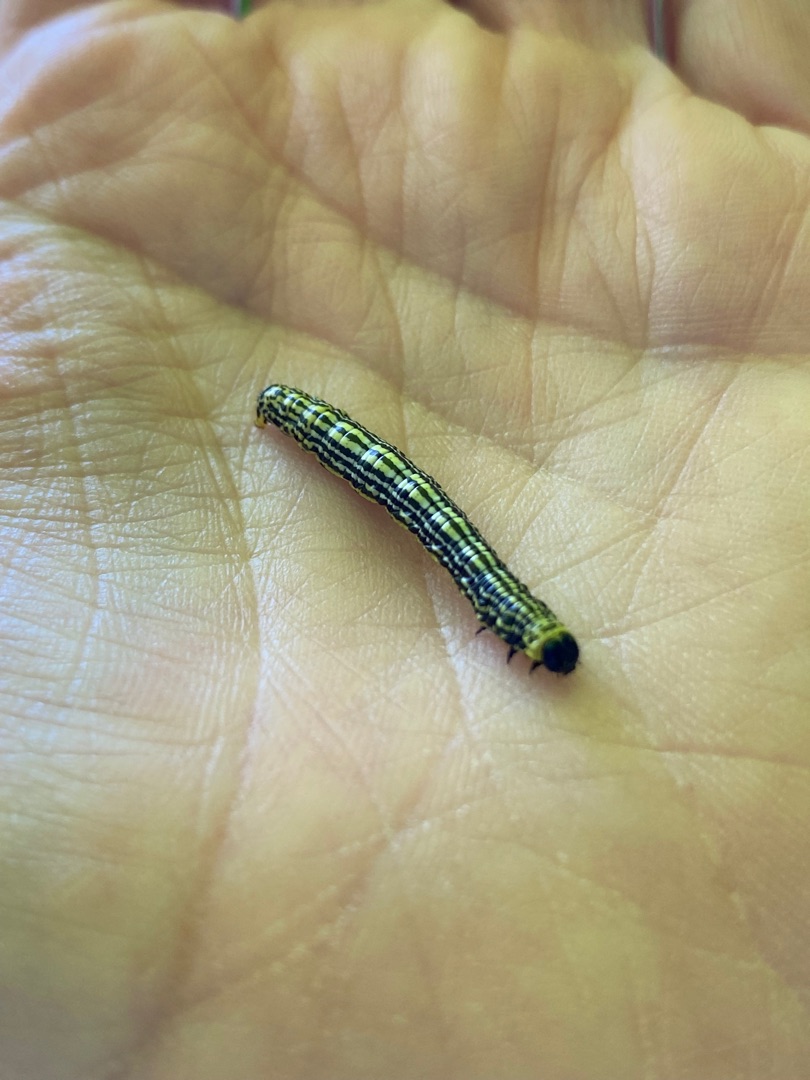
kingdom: Animalia
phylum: Arthropoda
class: Insecta
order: Lepidoptera
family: Geometridae
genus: Abraxas
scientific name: Abraxas sylvata
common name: Elmemåler
